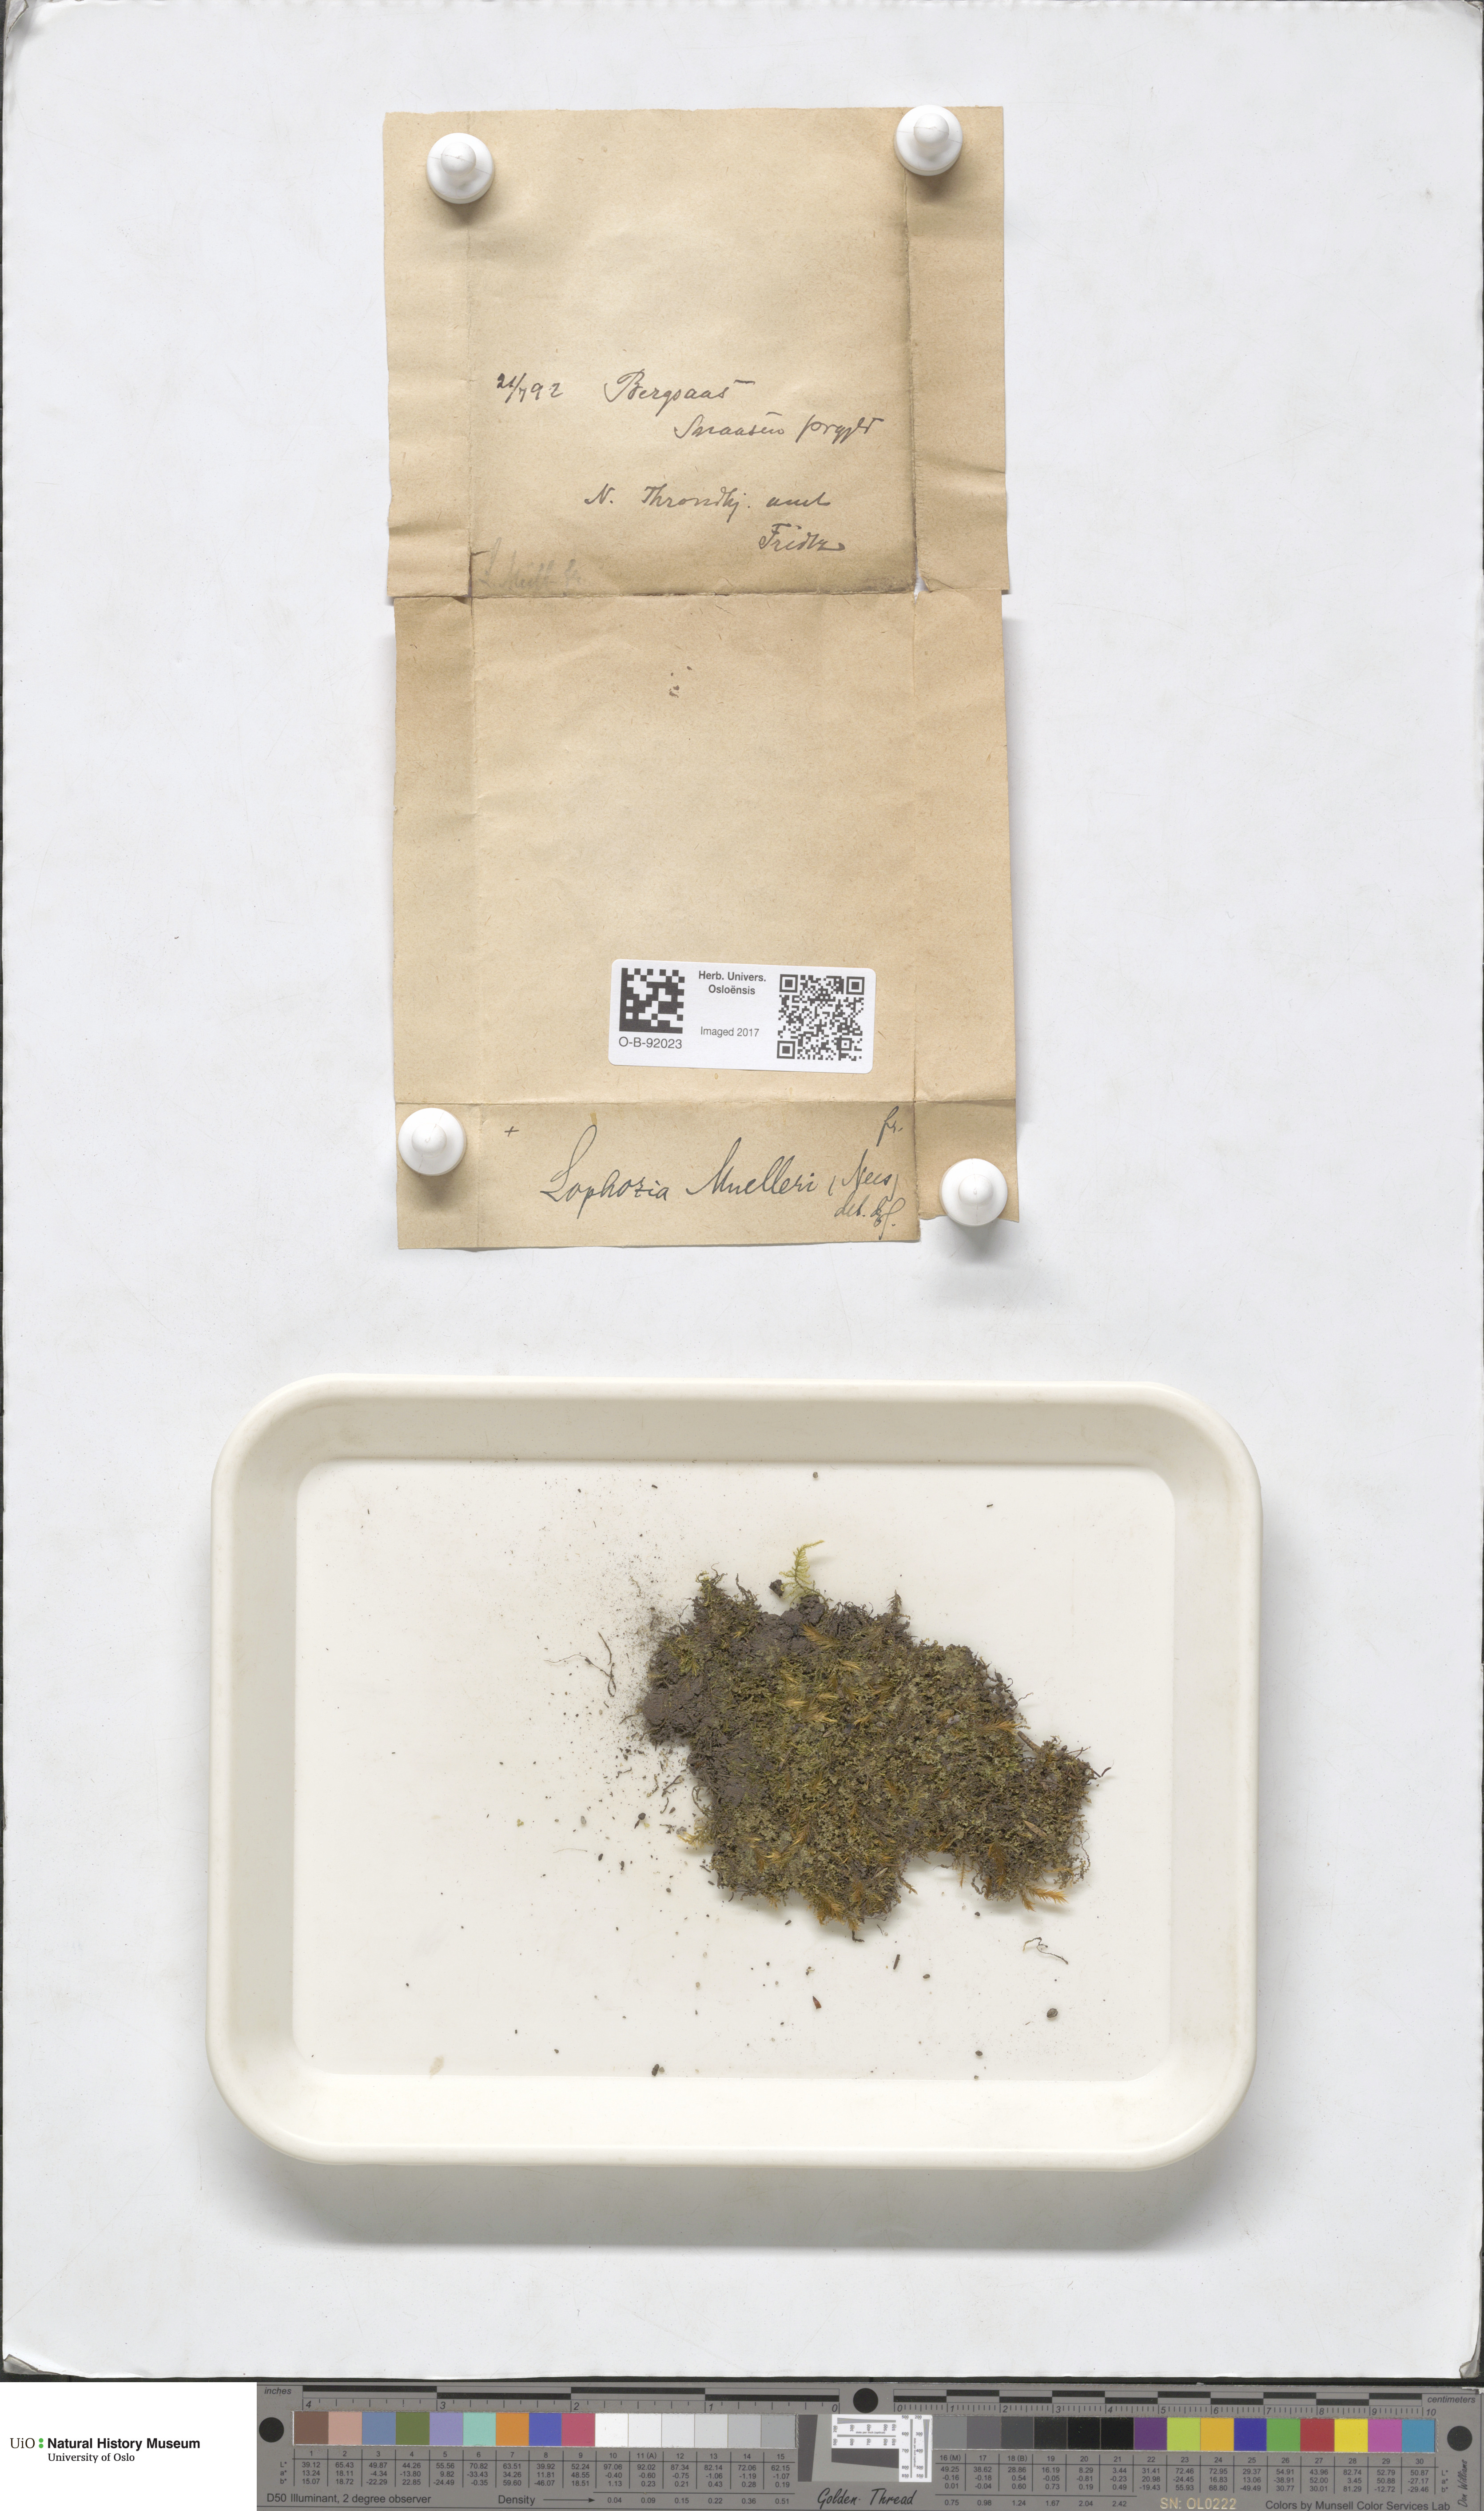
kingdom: Plantae
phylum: Marchantiophyta
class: Jungermanniopsida
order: Jungermanniales
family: Jungermanniaceae
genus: Mesoptychia
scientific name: Mesoptychia collaris
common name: Collared notchwort
